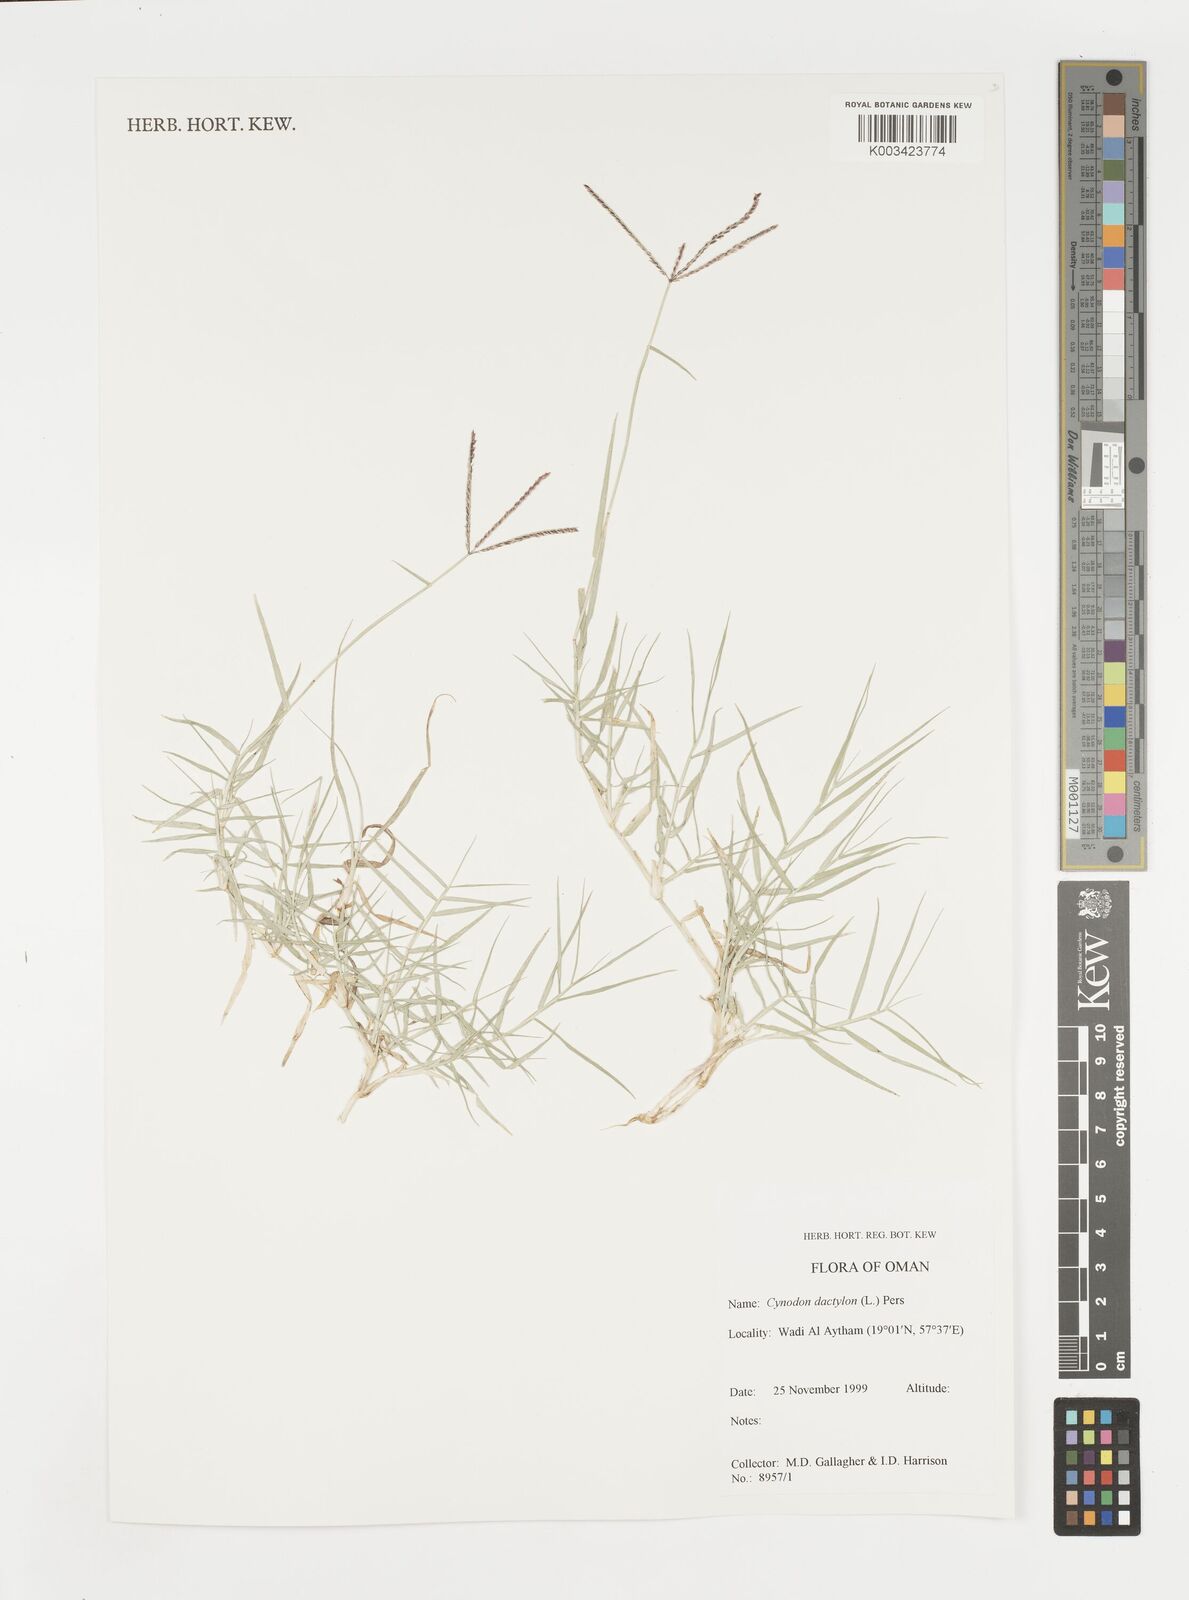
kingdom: Plantae
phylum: Tracheophyta
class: Liliopsida
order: Poales
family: Poaceae
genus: Cynodon
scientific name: Cynodon dactylon
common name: Bermuda grass
